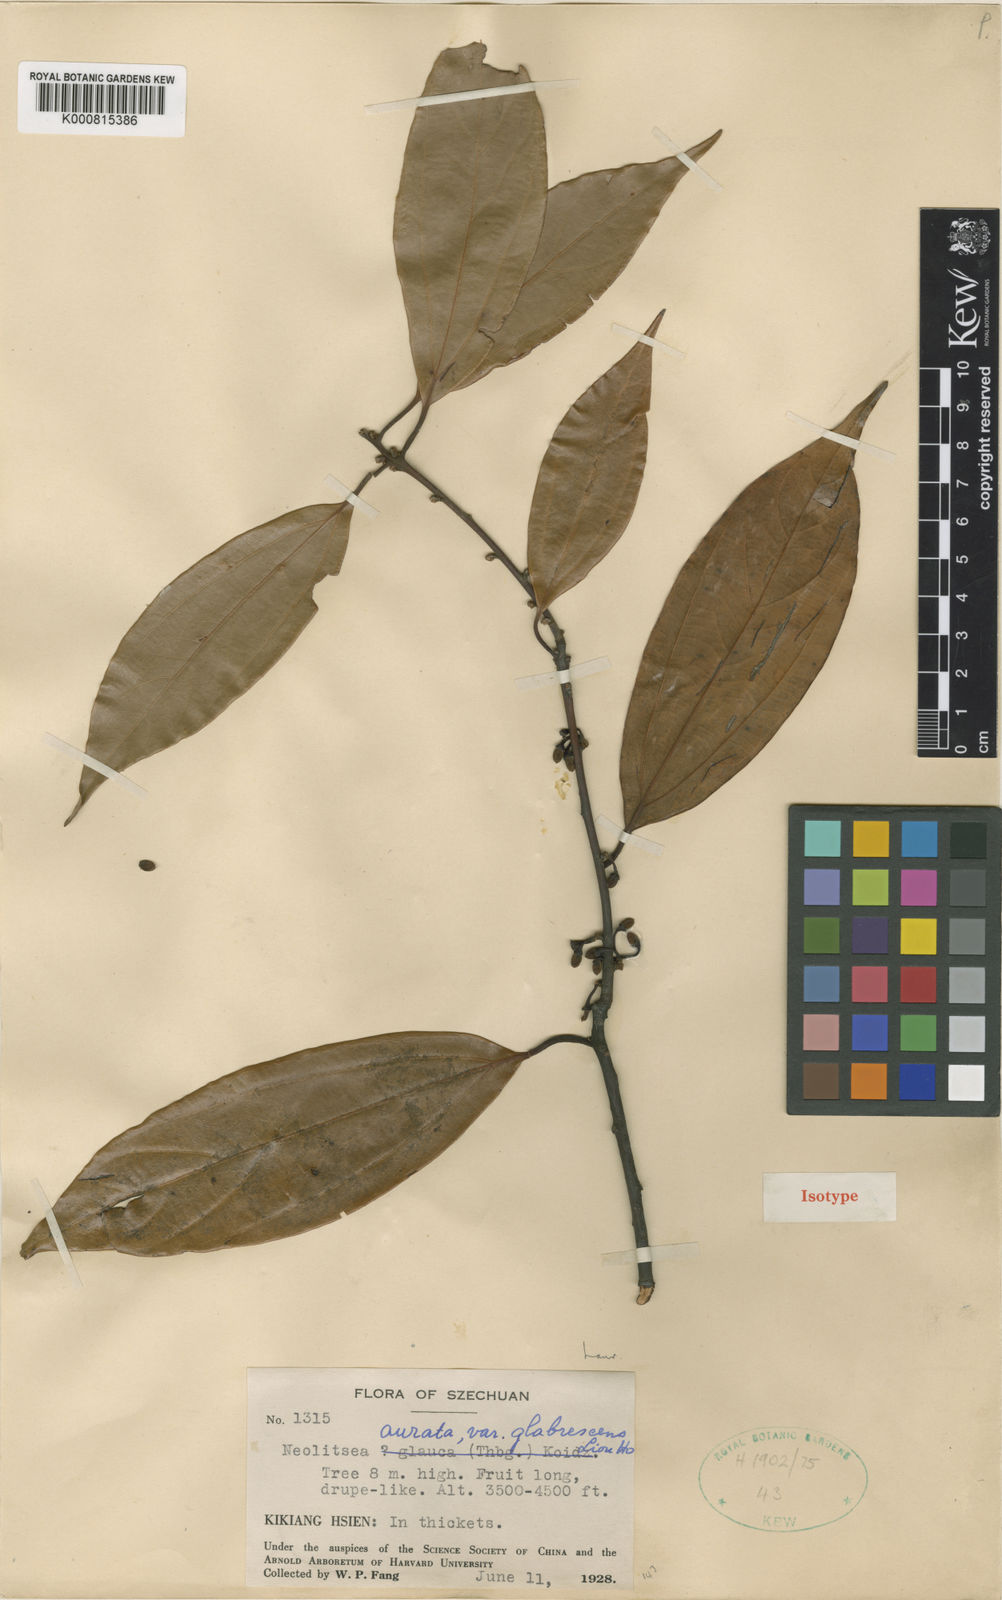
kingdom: Plantae
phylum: Tracheophyta
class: Magnoliopsida
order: Laurales
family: Lauraceae
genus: Neolitsea
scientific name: Neolitsea aurata
